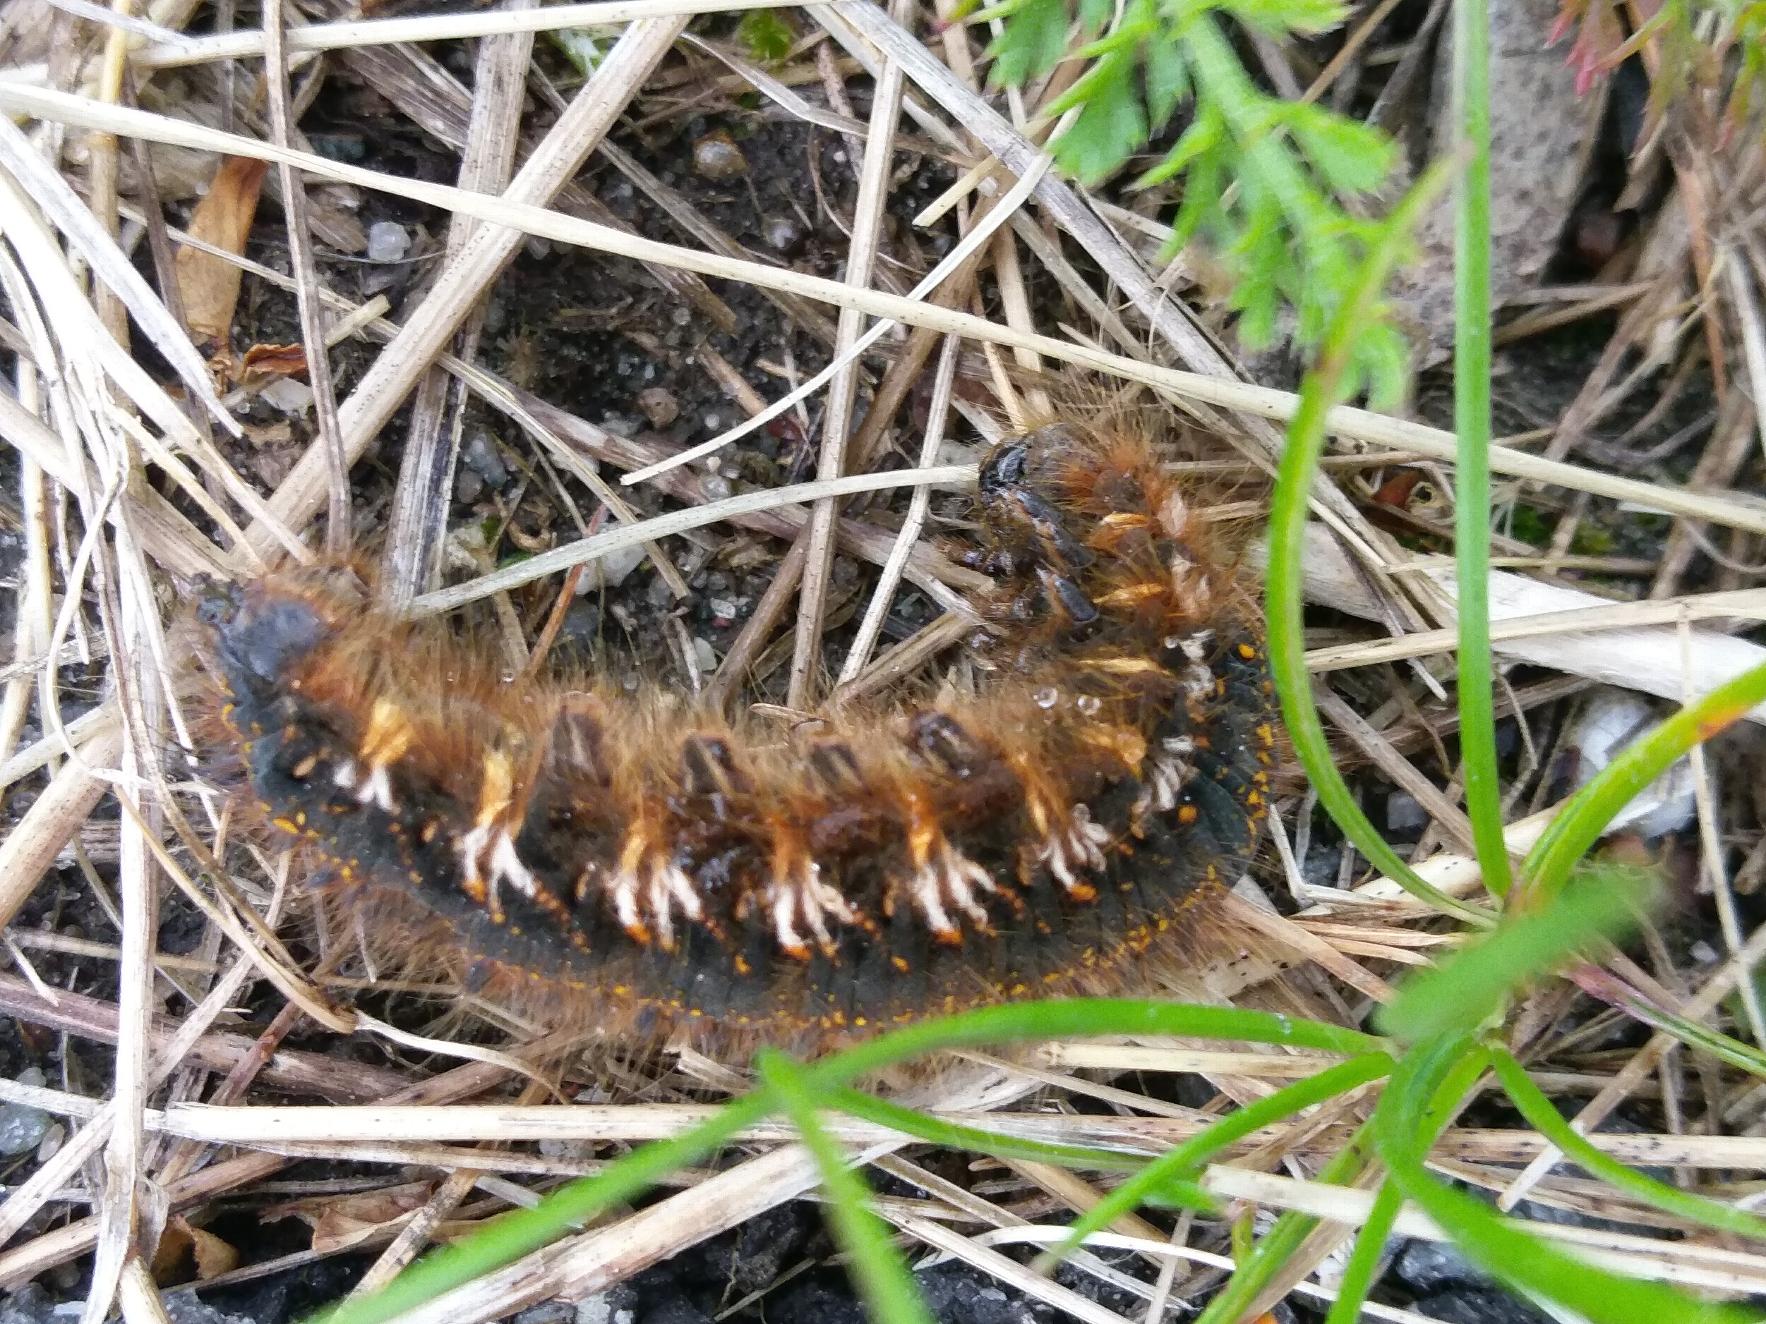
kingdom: Animalia
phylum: Arthropoda
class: Insecta
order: Lepidoptera
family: Lasiocampidae
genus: Euthrix
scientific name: Euthrix potatoria
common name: Græsspinder
